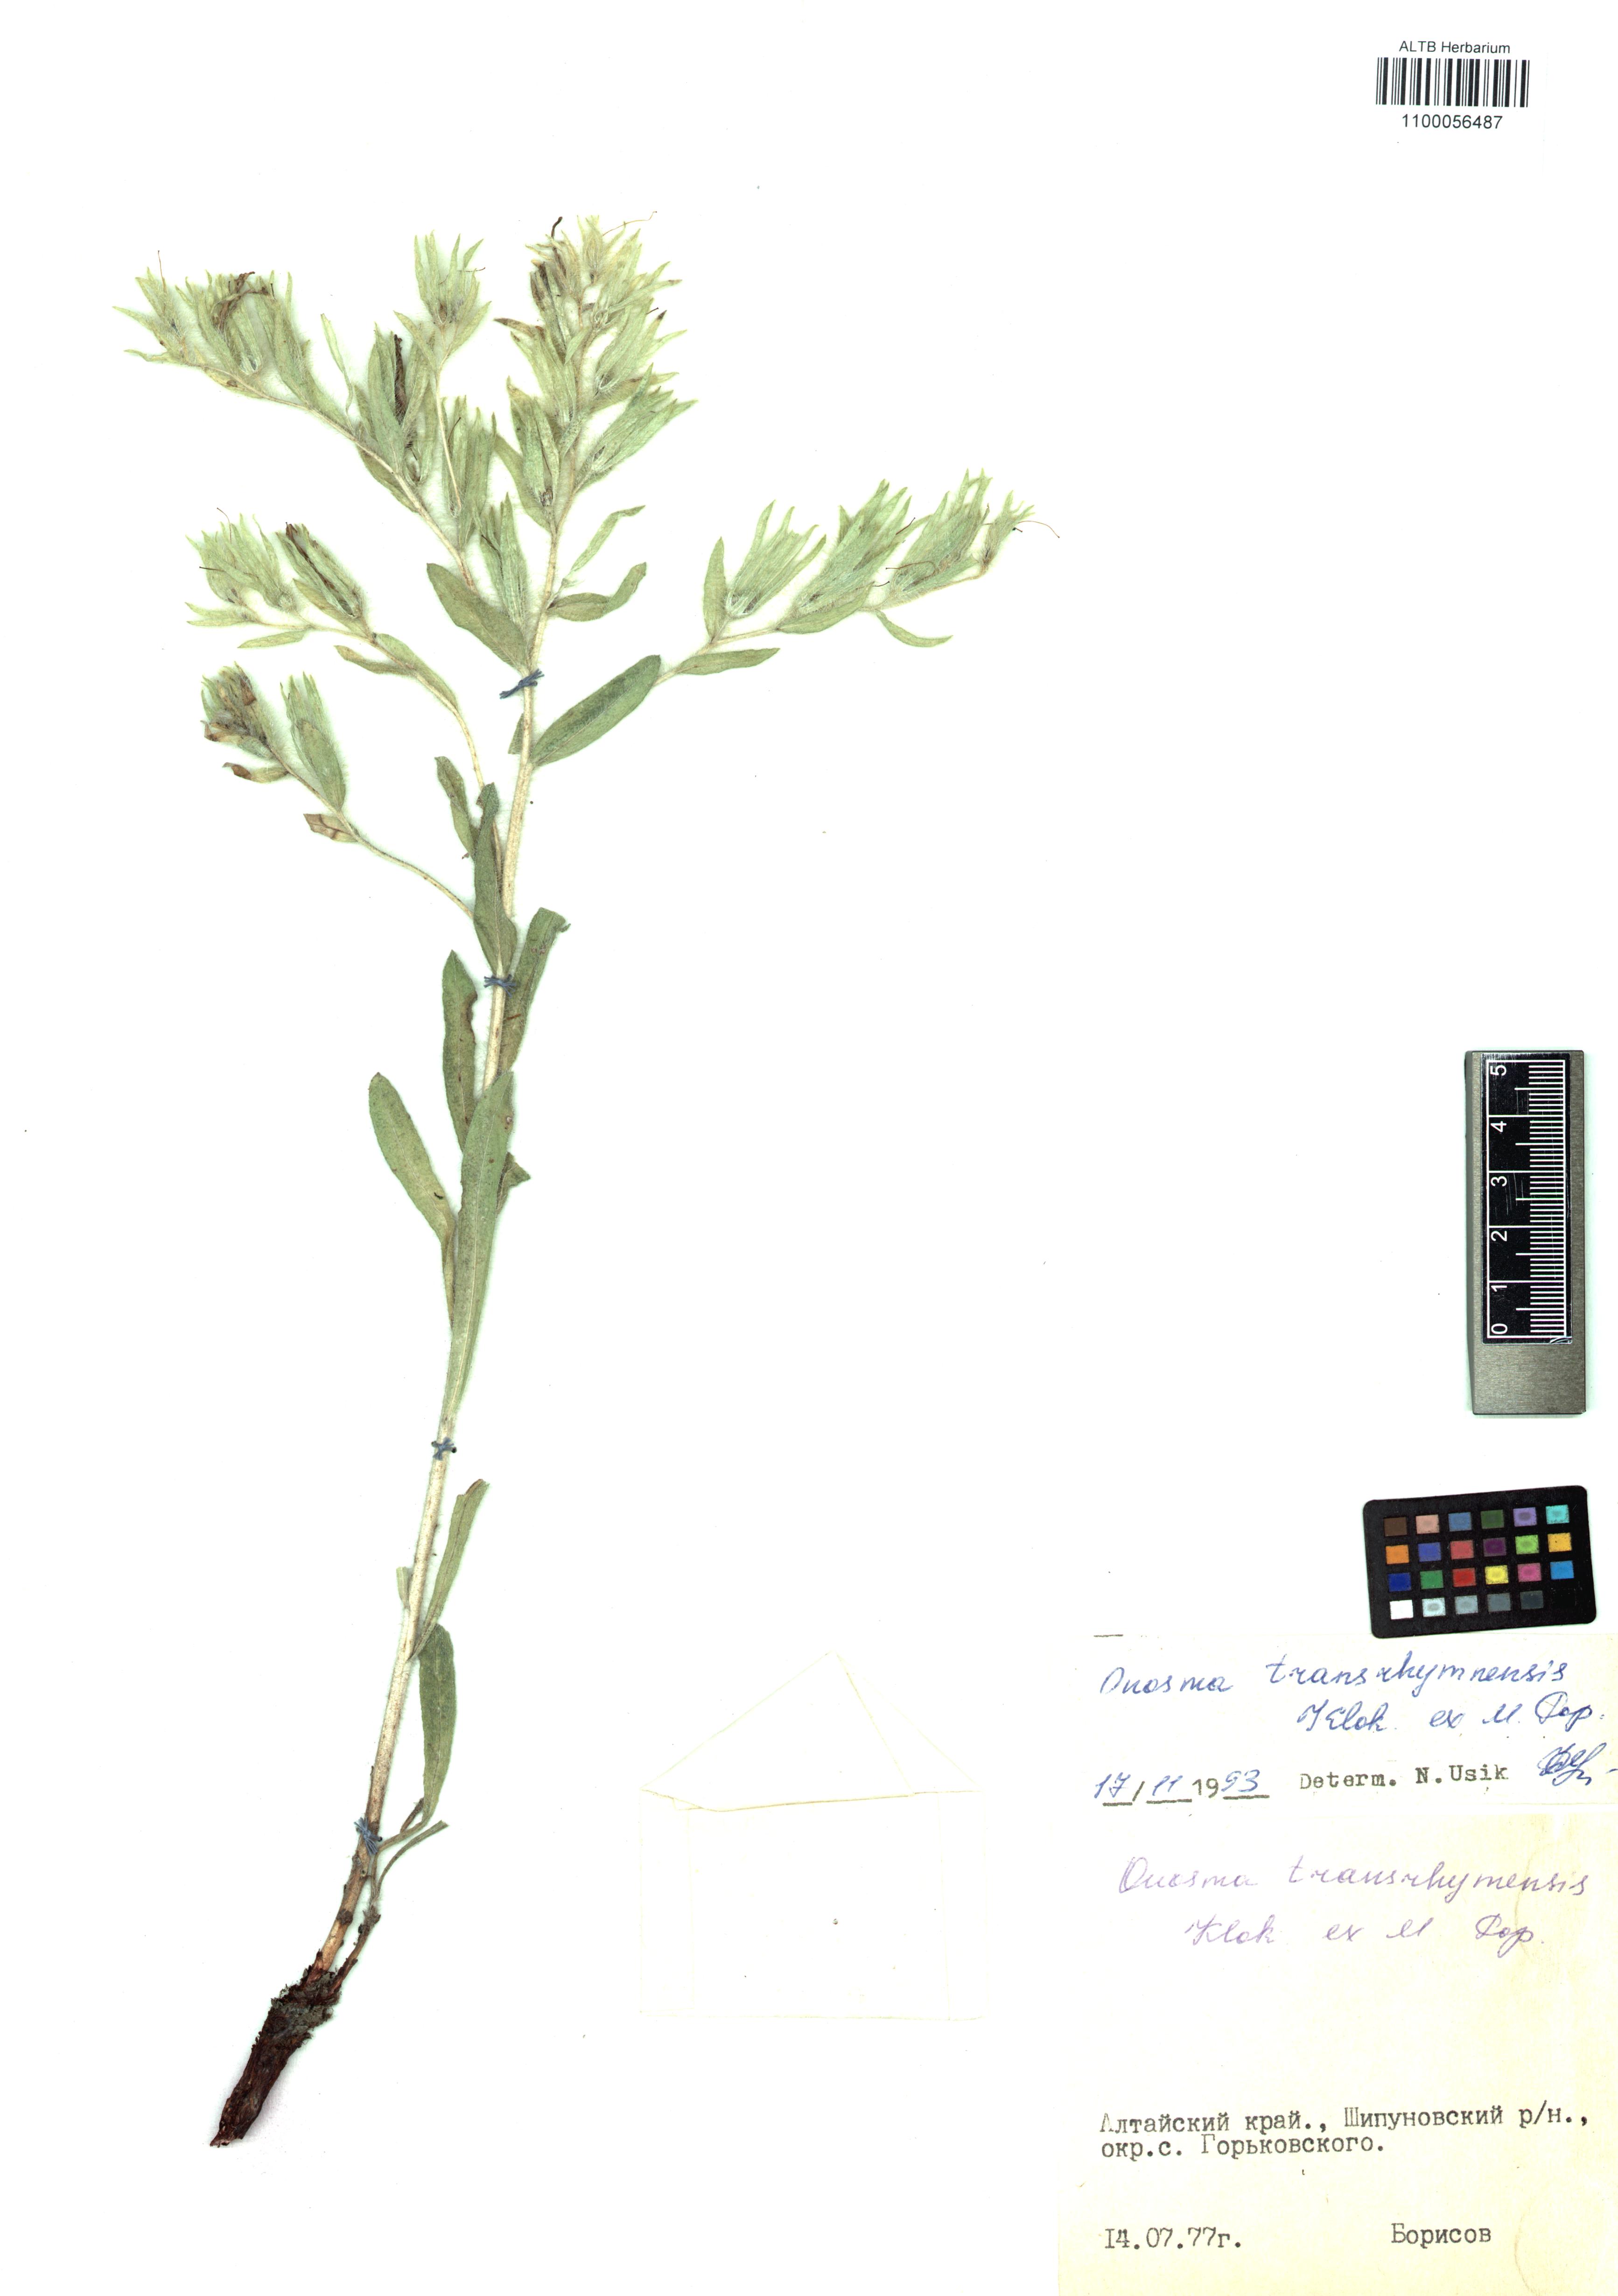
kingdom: Plantae
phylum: Tracheophyta
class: Magnoliopsida
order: Boraginales
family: Boraginaceae
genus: Onosma
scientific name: Onosma transrhymnensis
